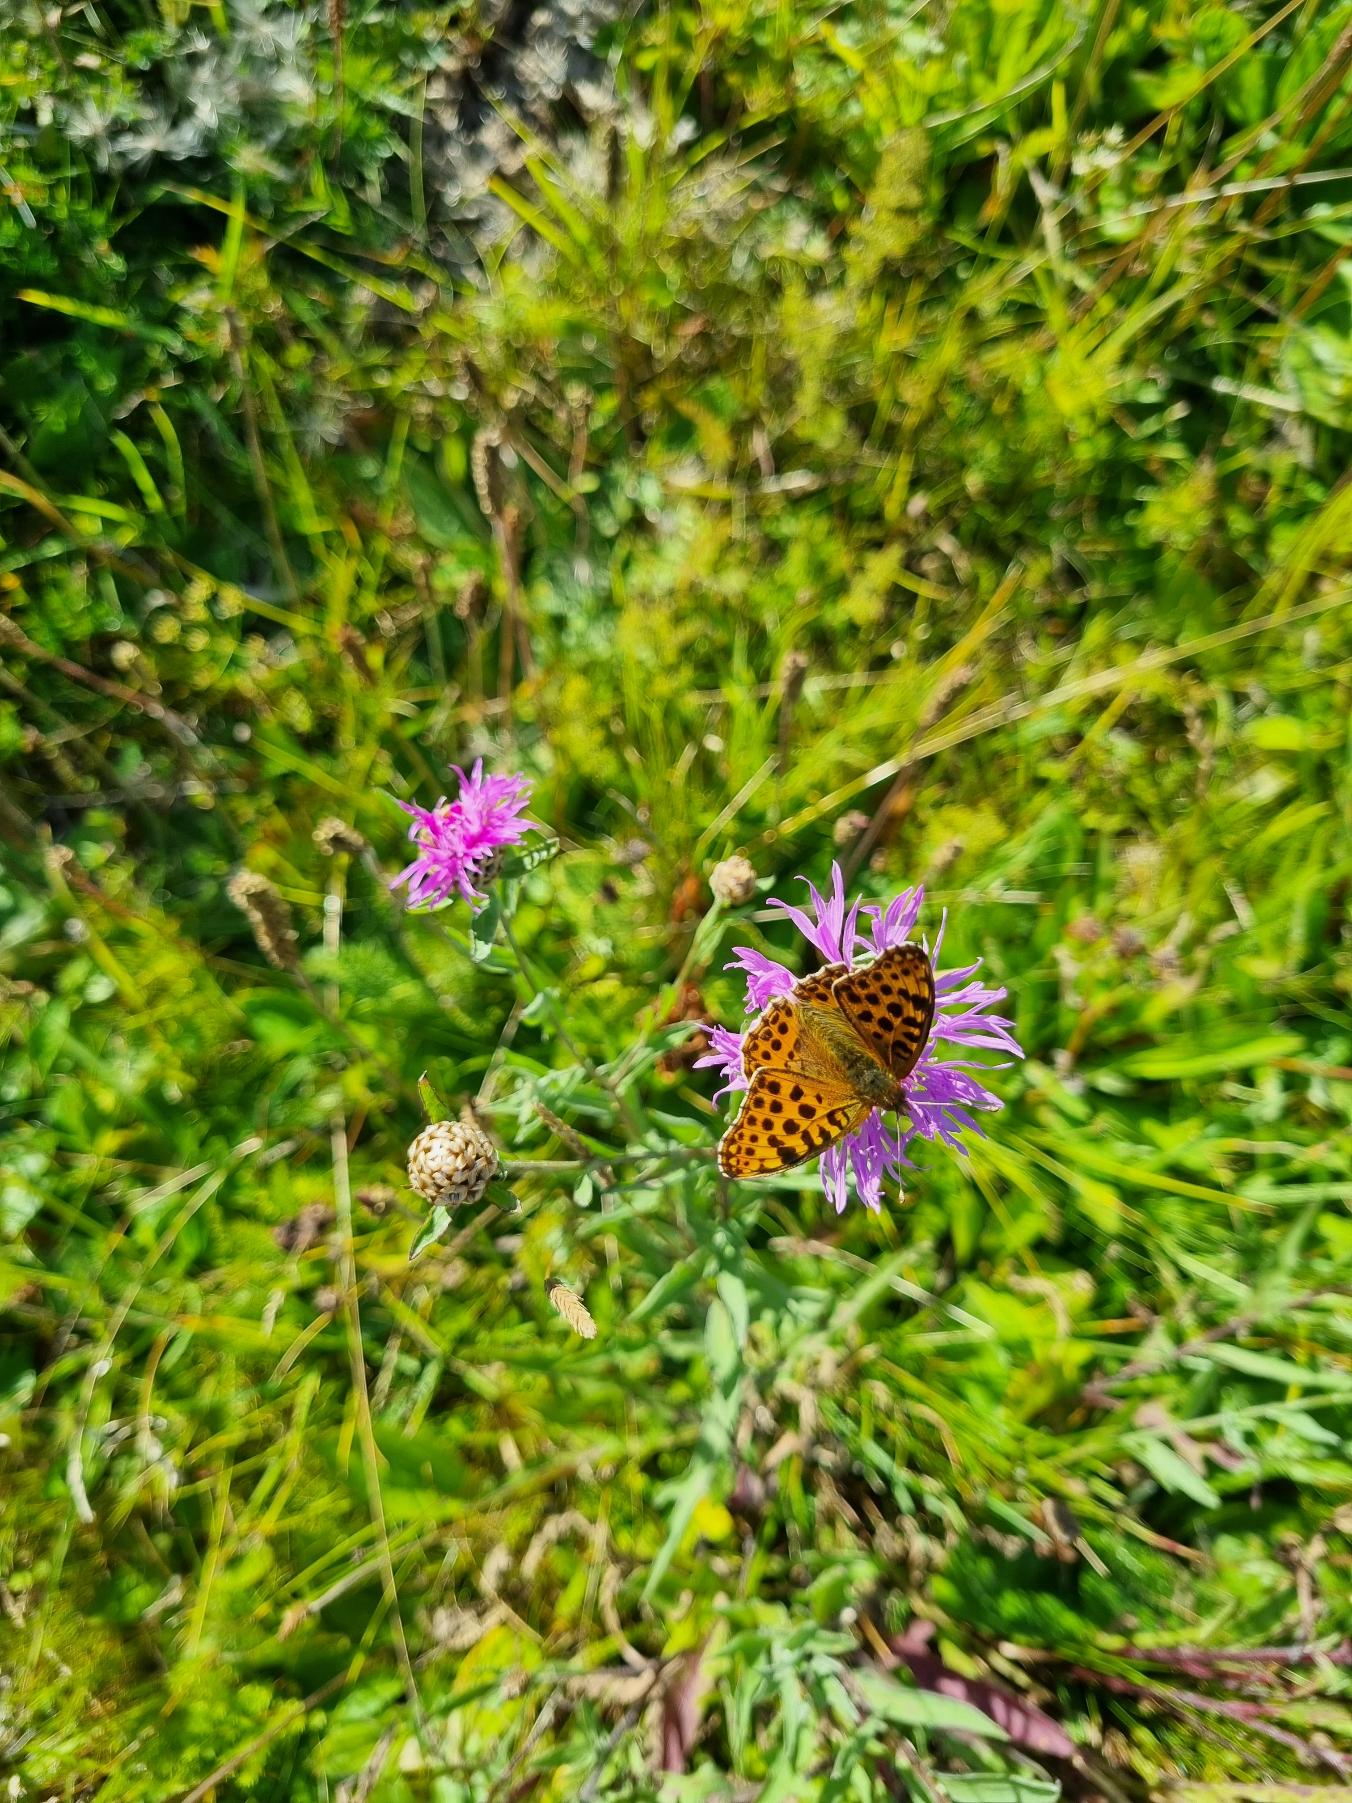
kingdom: Animalia
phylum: Arthropoda
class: Insecta
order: Lepidoptera
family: Nymphalidae
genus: Issoria
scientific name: Issoria lathonia
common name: Storplettet perlemorsommerfugl
